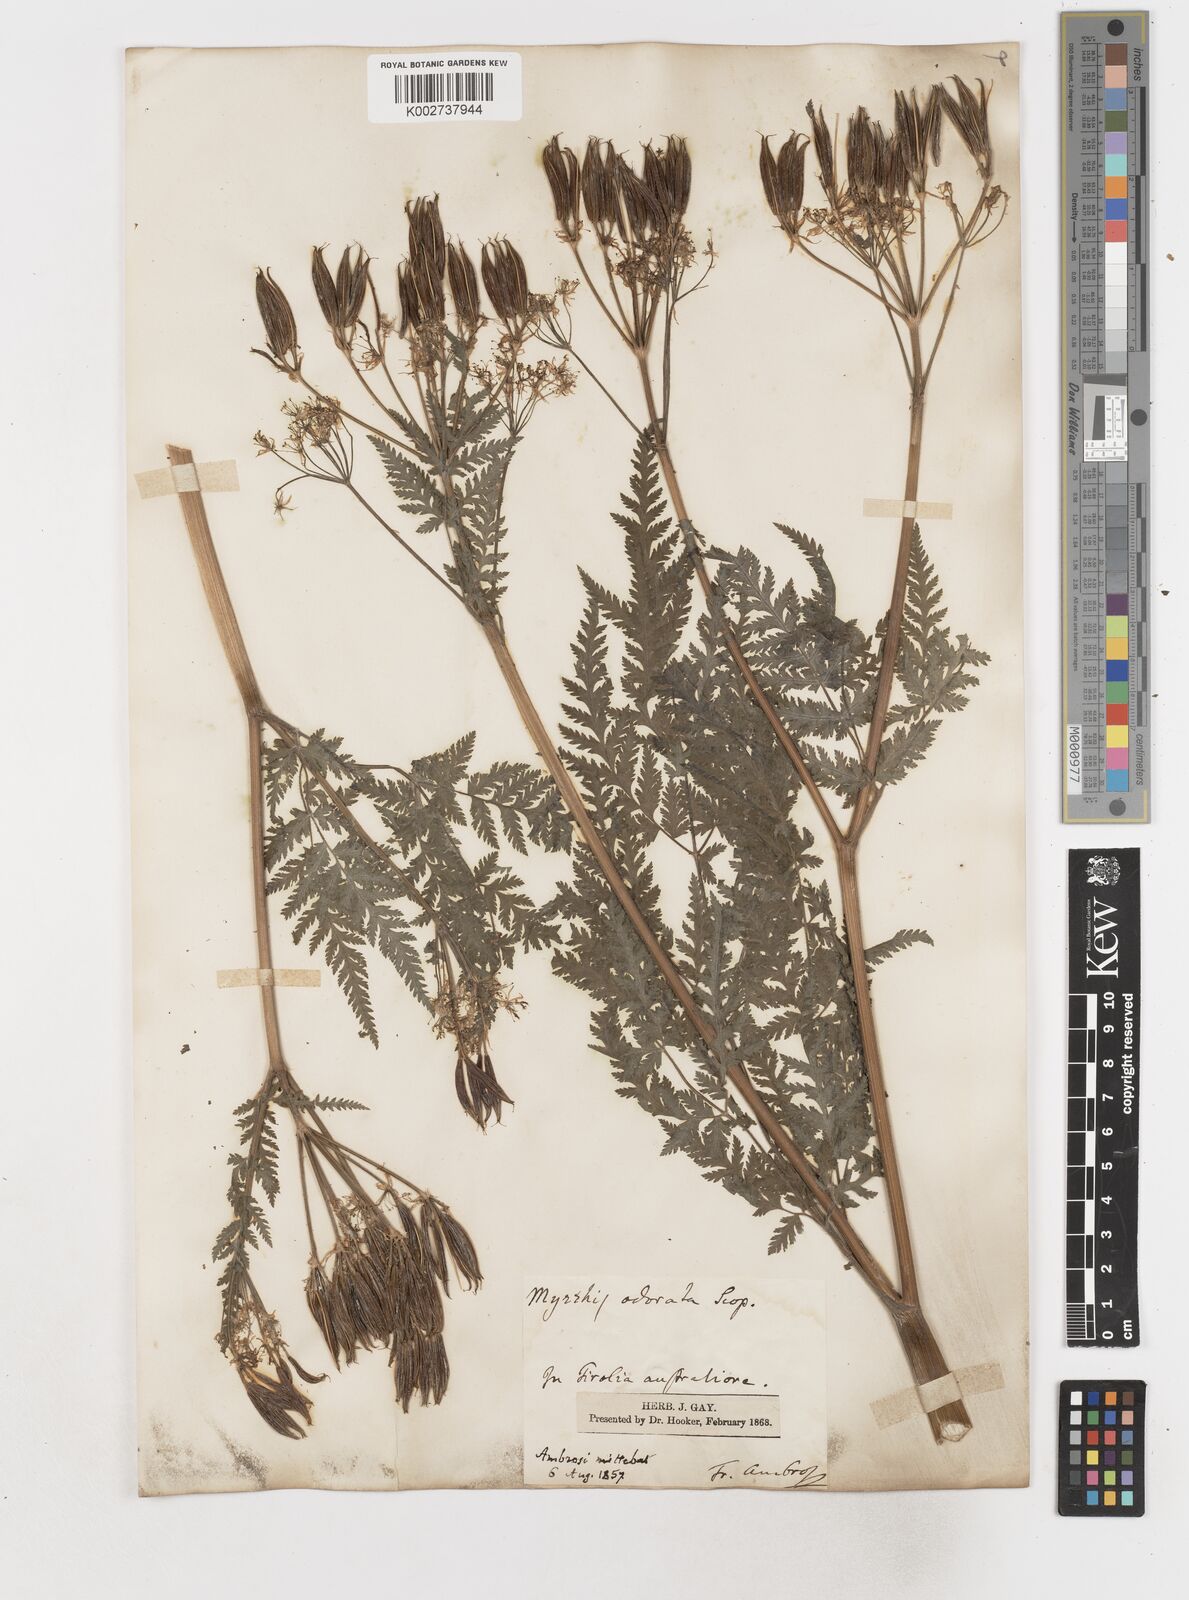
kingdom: Plantae
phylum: Tracheophyta
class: Magnoliopsida
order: Apiales
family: Apiaceae
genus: Myrrhis
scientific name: Myrrhis odorata
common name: Sweet cicely
